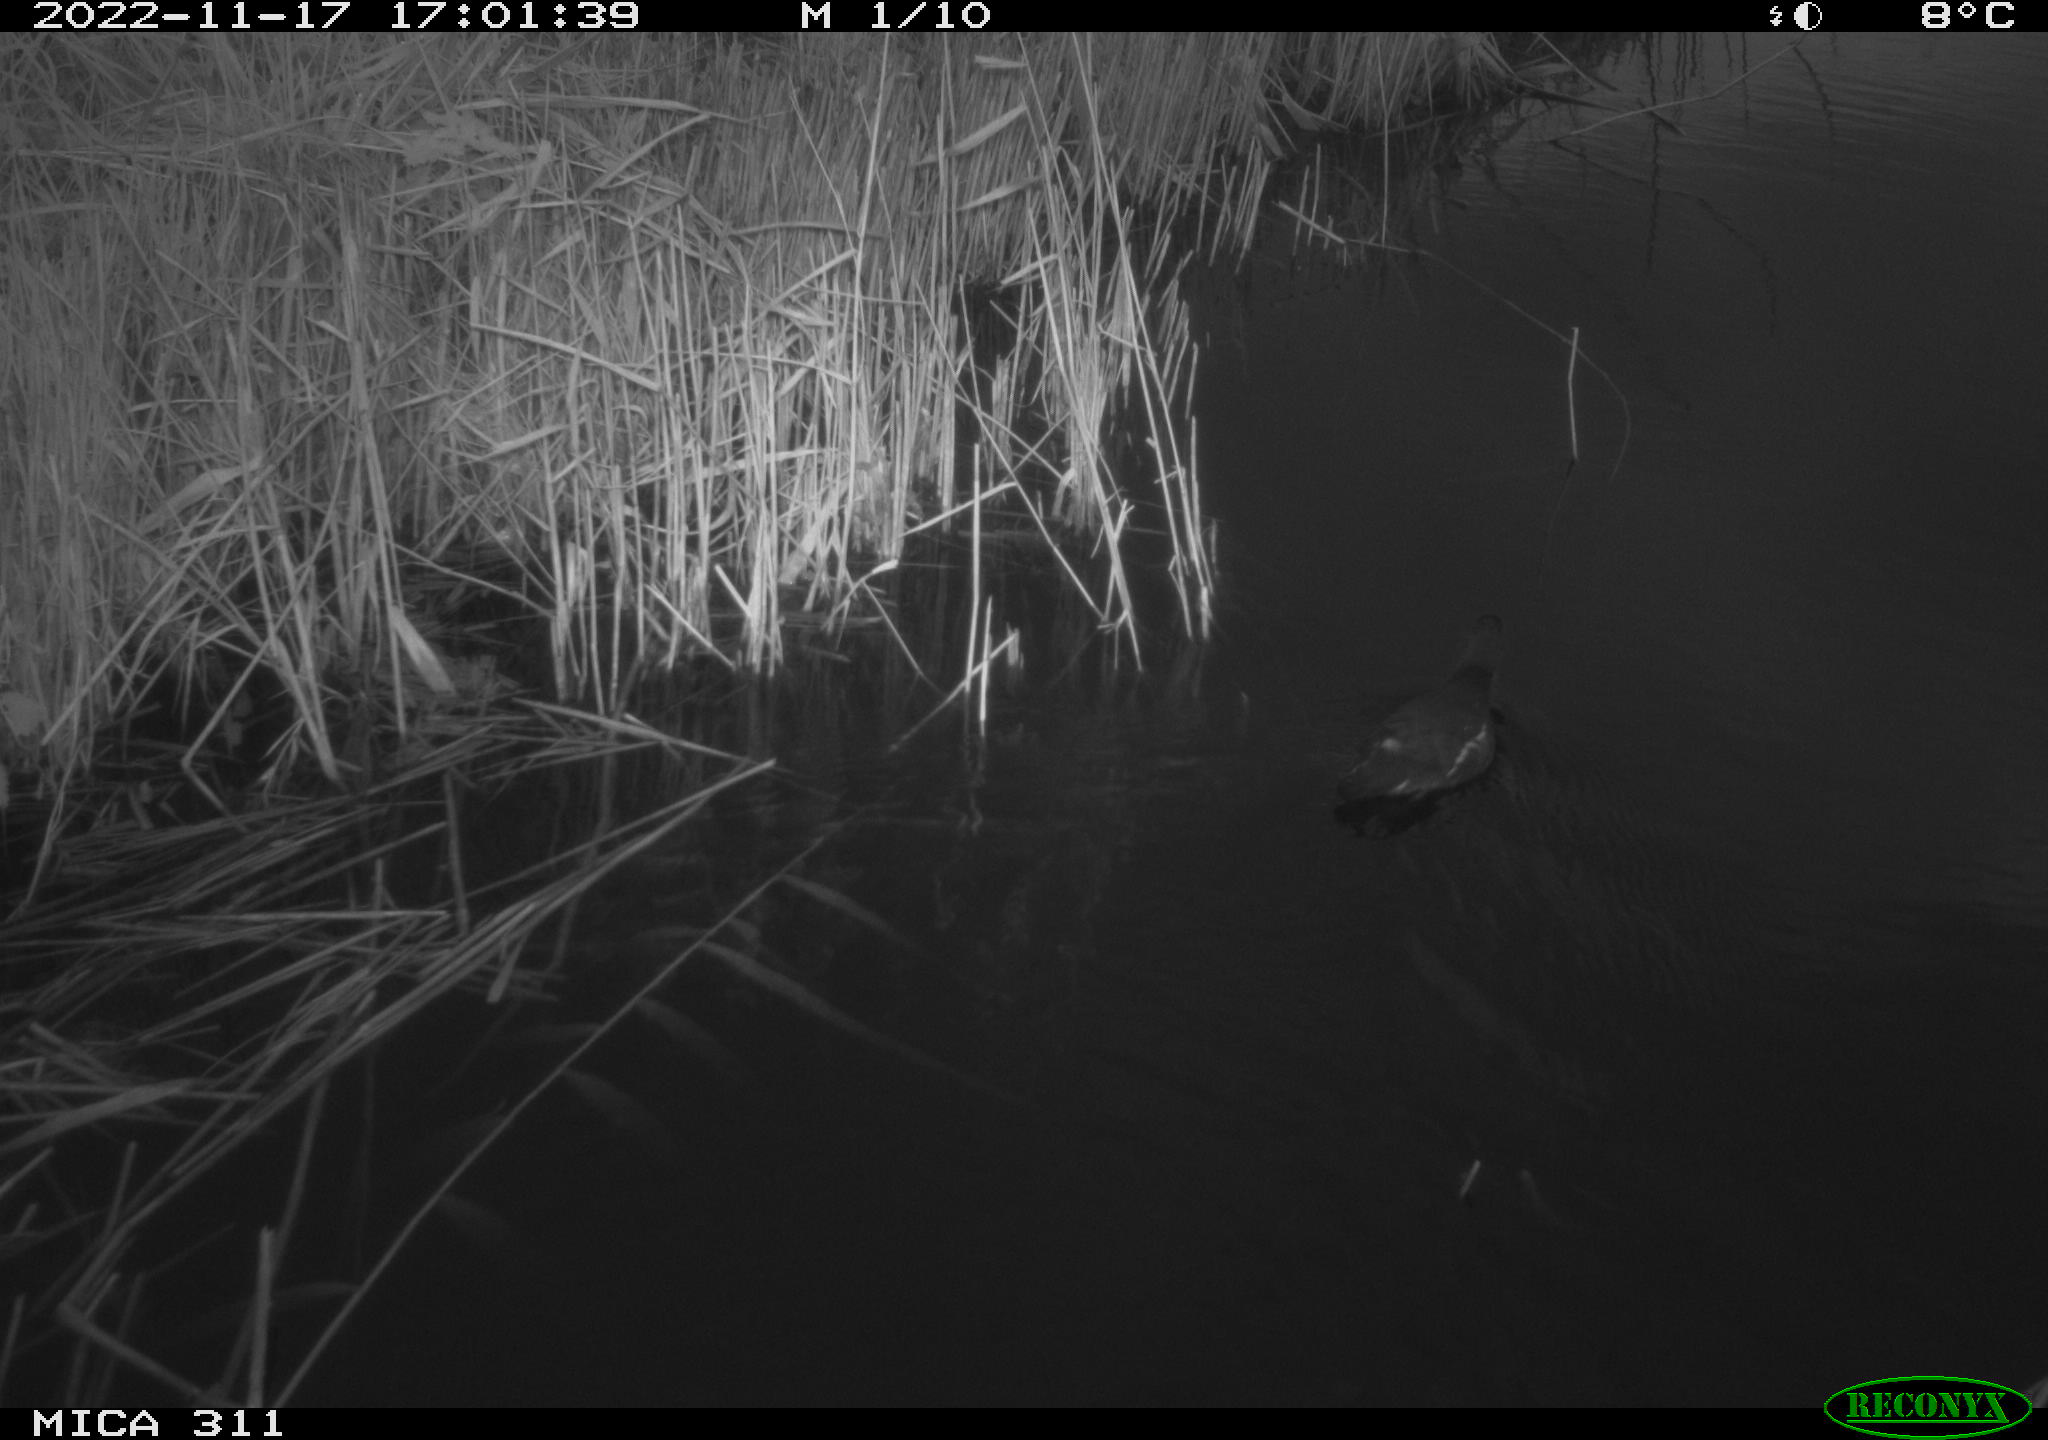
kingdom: Animalia
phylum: Chordata
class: Aves
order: Gruiformes
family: Rallidae
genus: Gallinula
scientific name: Gallinula chloropus
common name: Common moorhen
